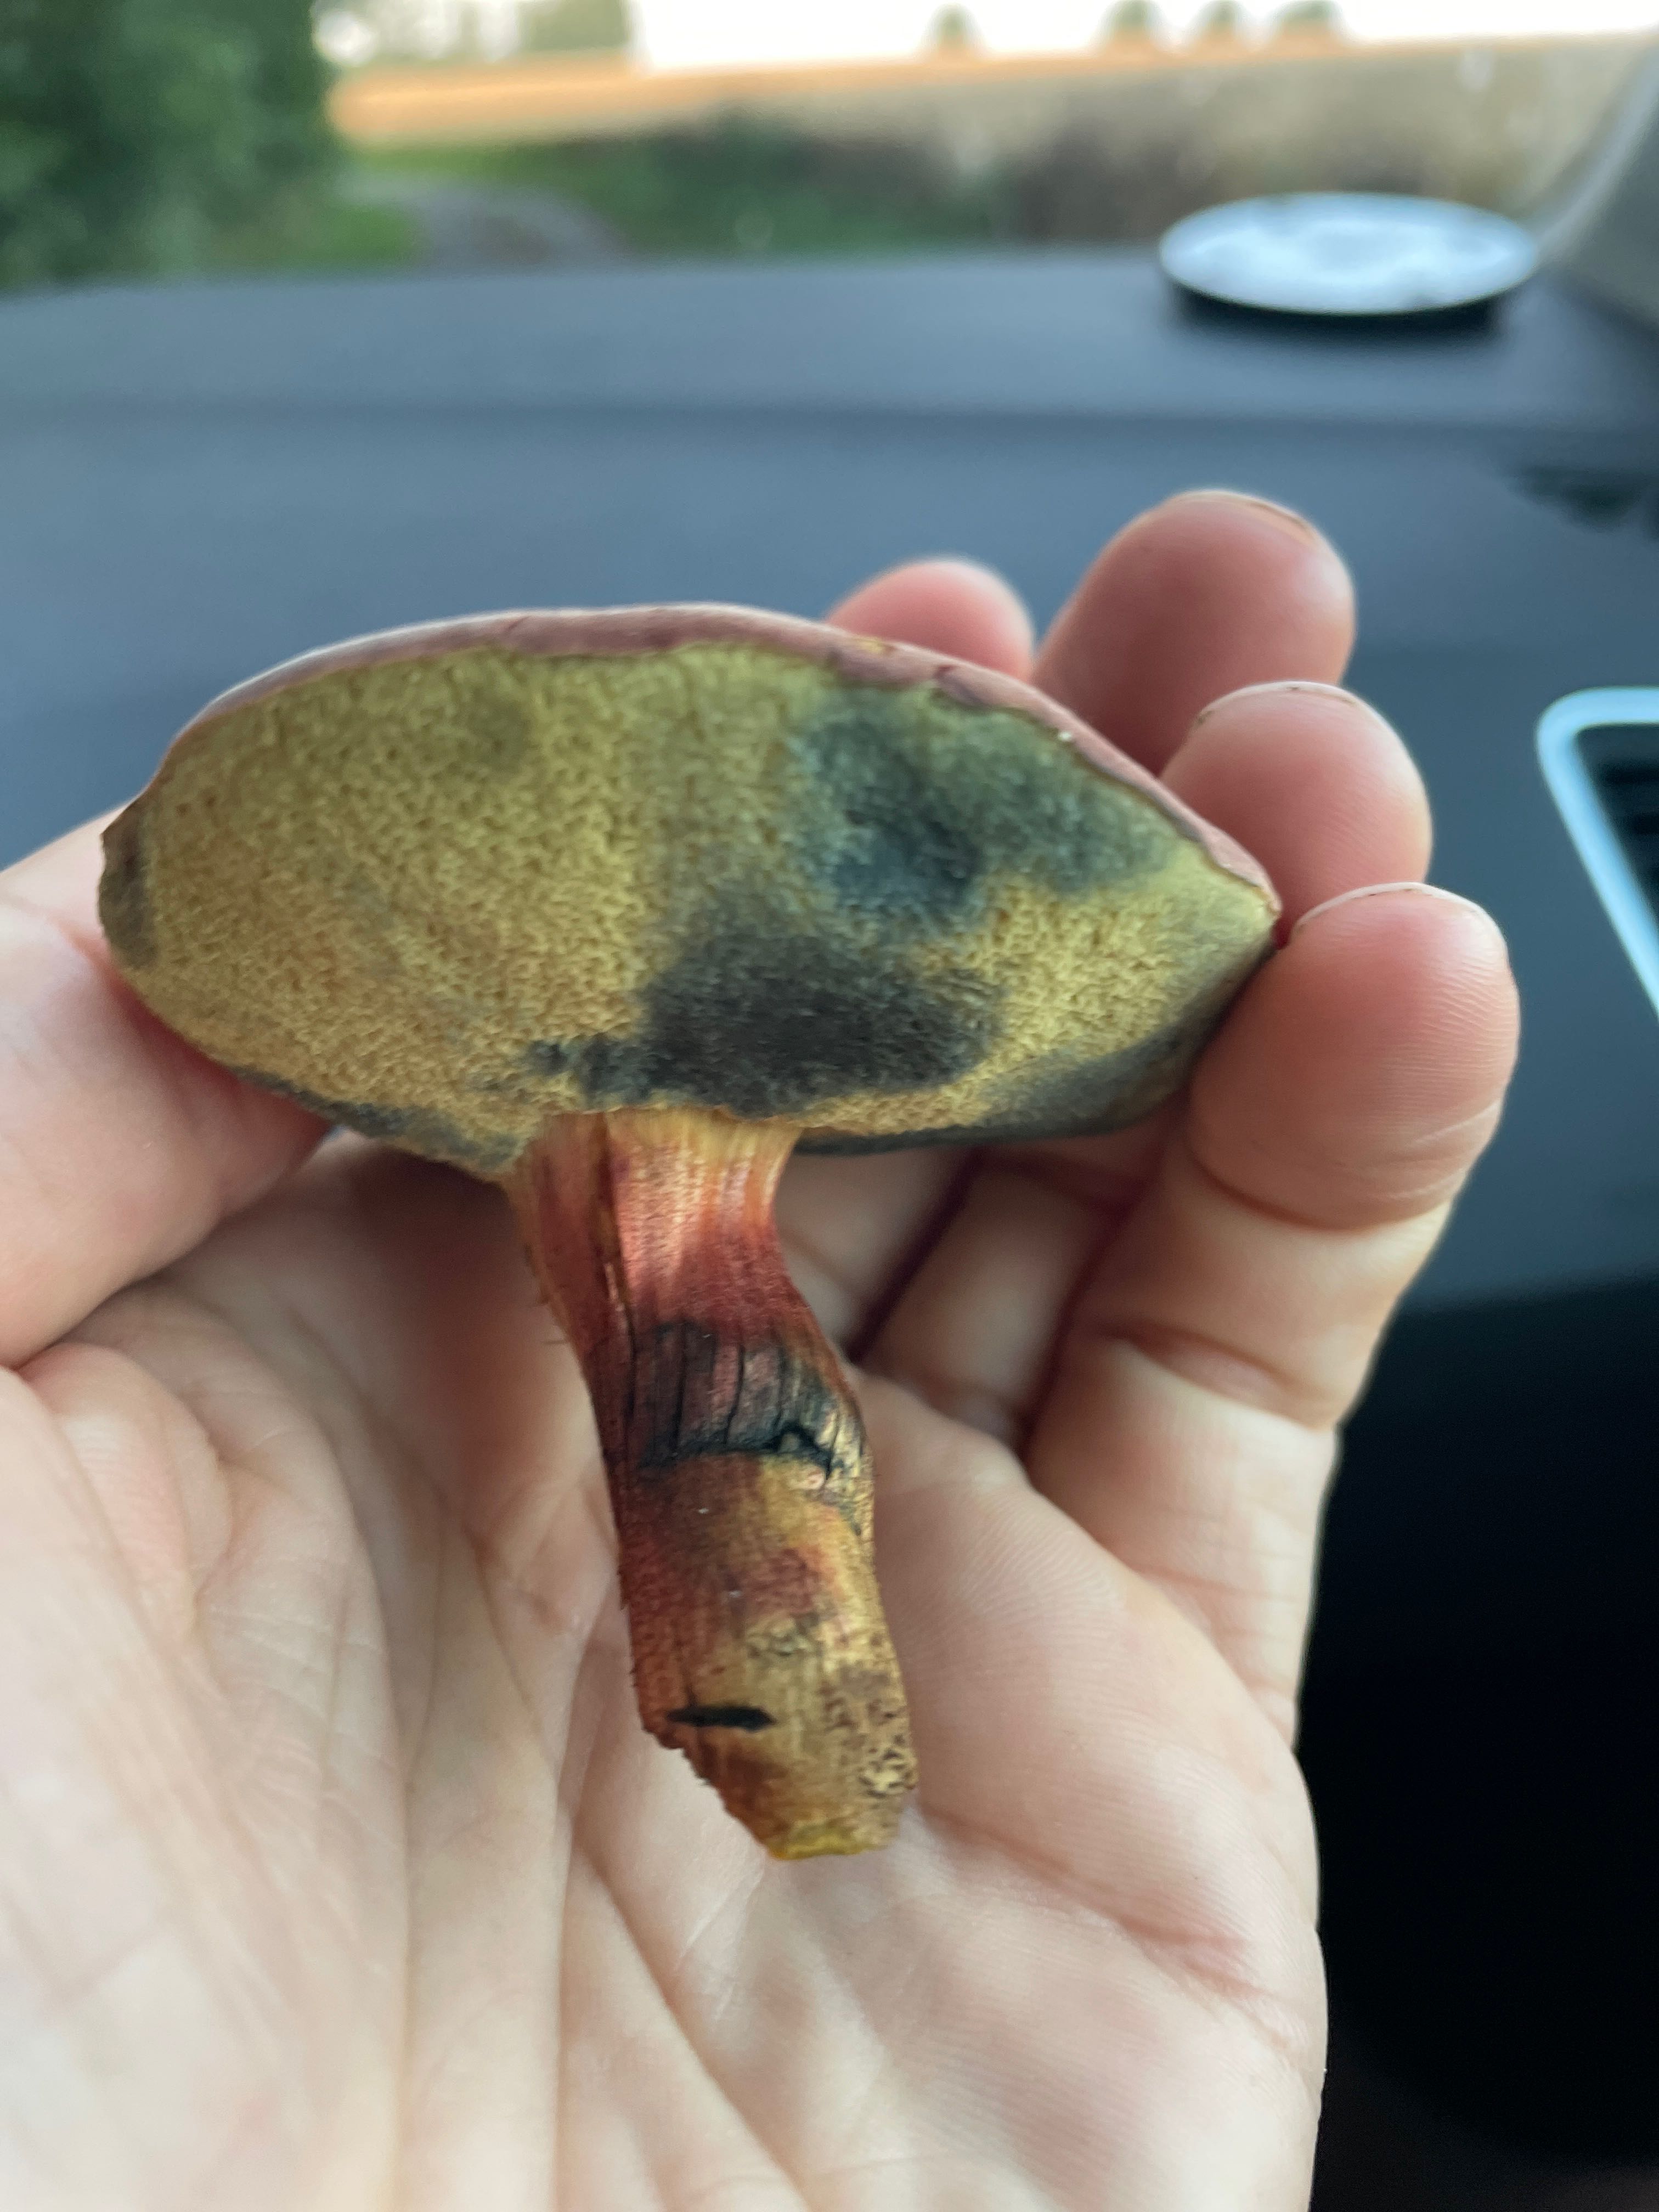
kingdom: Fungi
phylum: Basidiomycota
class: Agaricomycetes
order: Boletales
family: Boletaceae
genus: Hortiboletus
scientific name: Hortiboletus bubalinus
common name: aurora-rørhat
